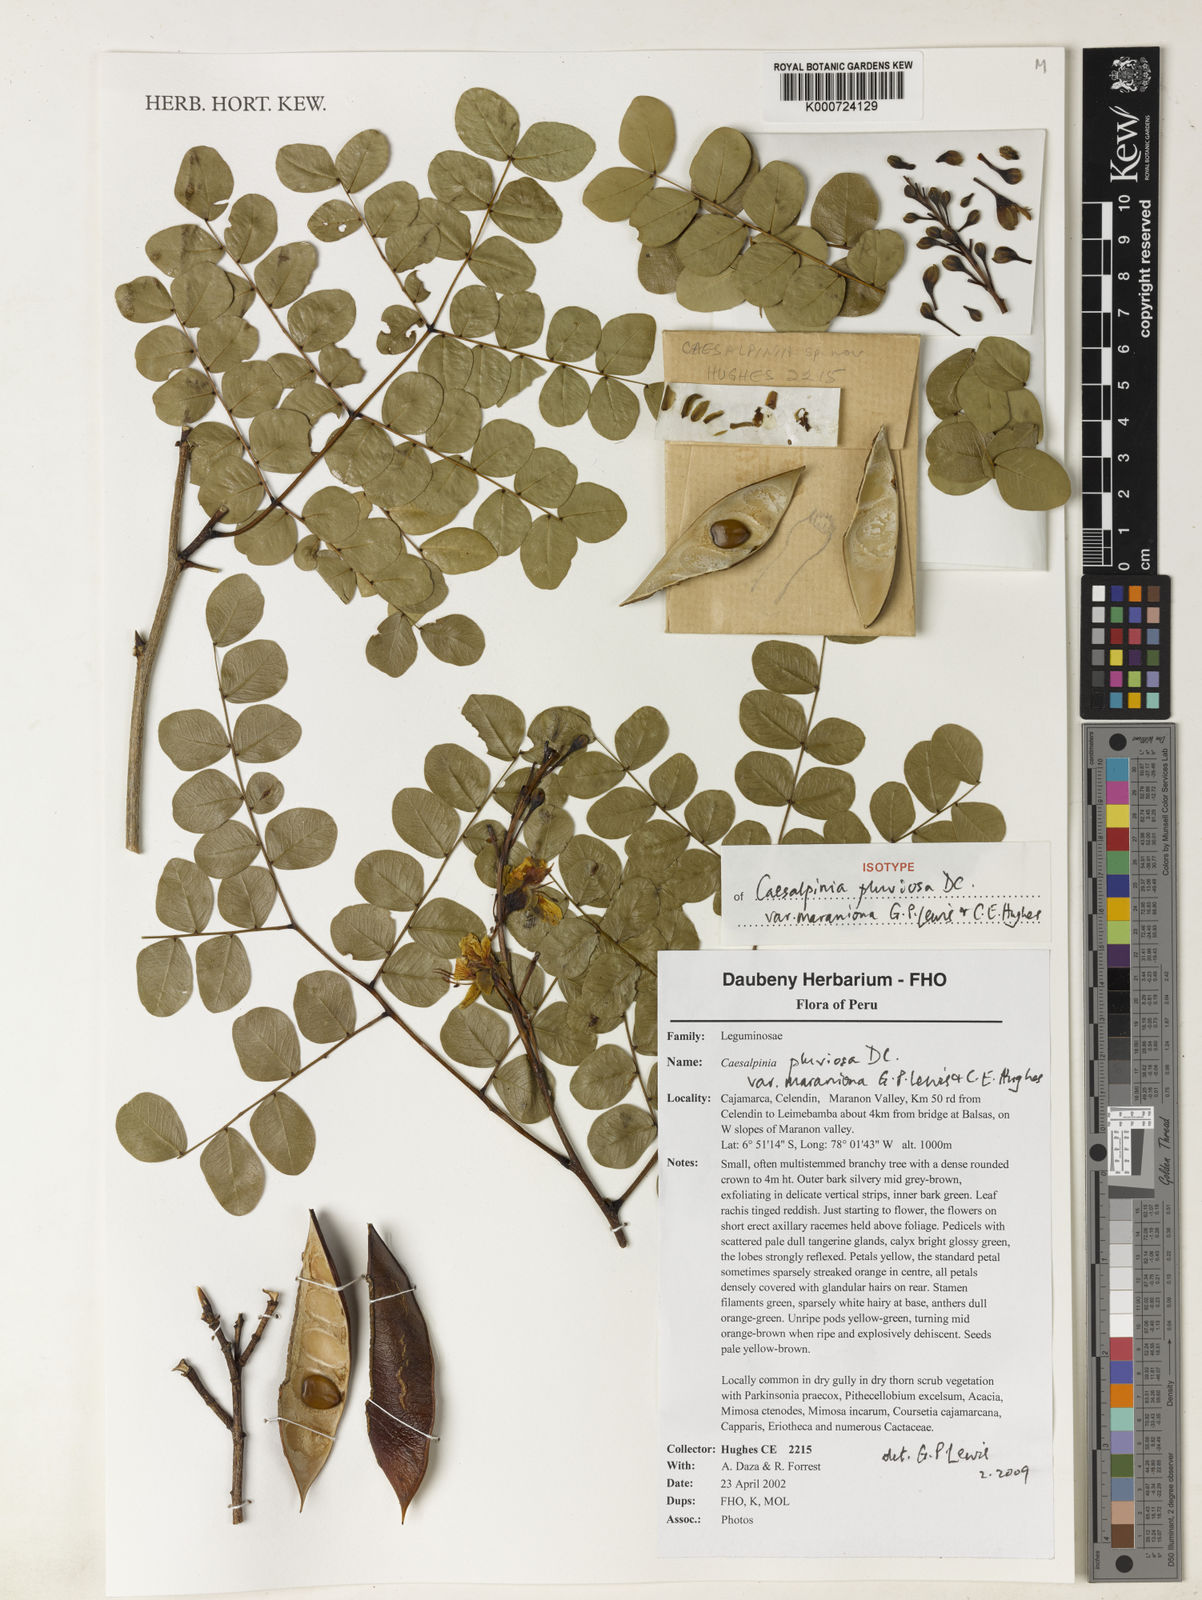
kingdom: Plantae
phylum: Tracheophyta
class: Magnoliopsida
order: Fabales
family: Fabaceae
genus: Cenostigma
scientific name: Cenostigma pluviosum
